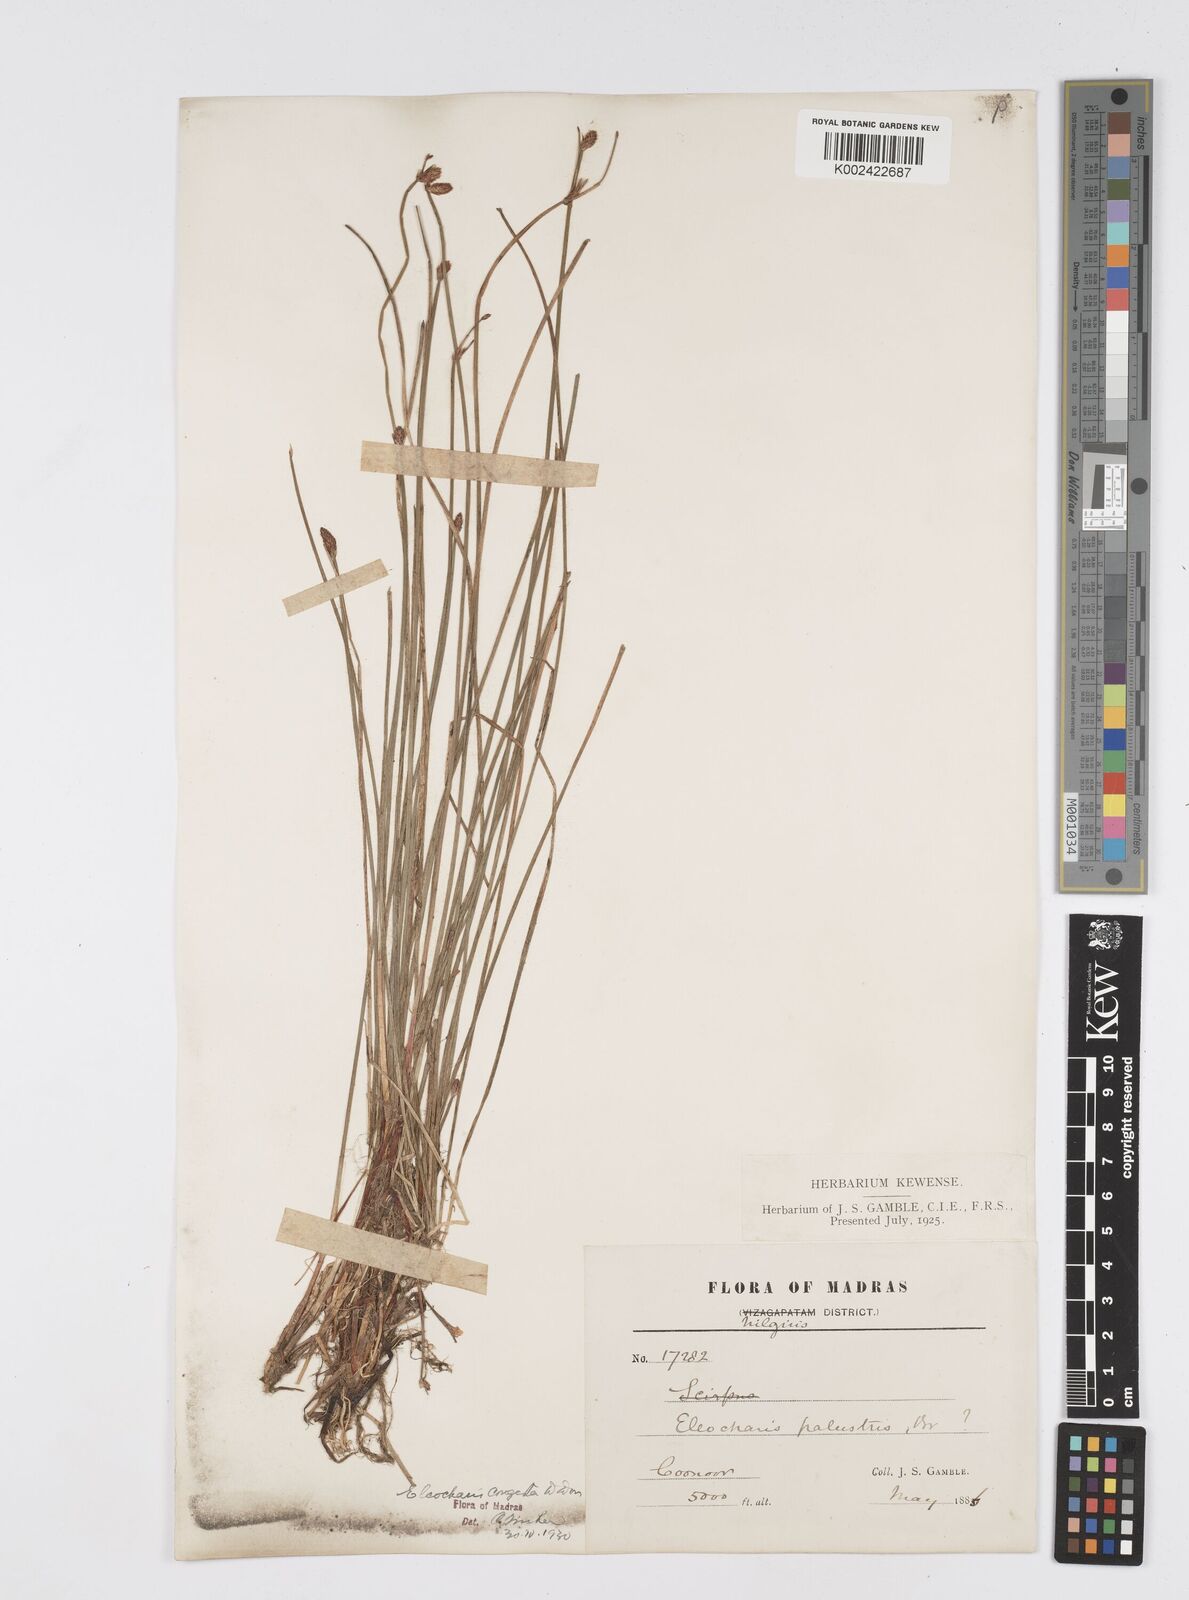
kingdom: Plantae
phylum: Tracheophyta
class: Liliopsida
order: Poales
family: Cyperaceae
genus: Eleocharis
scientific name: Eleocharis congesta
